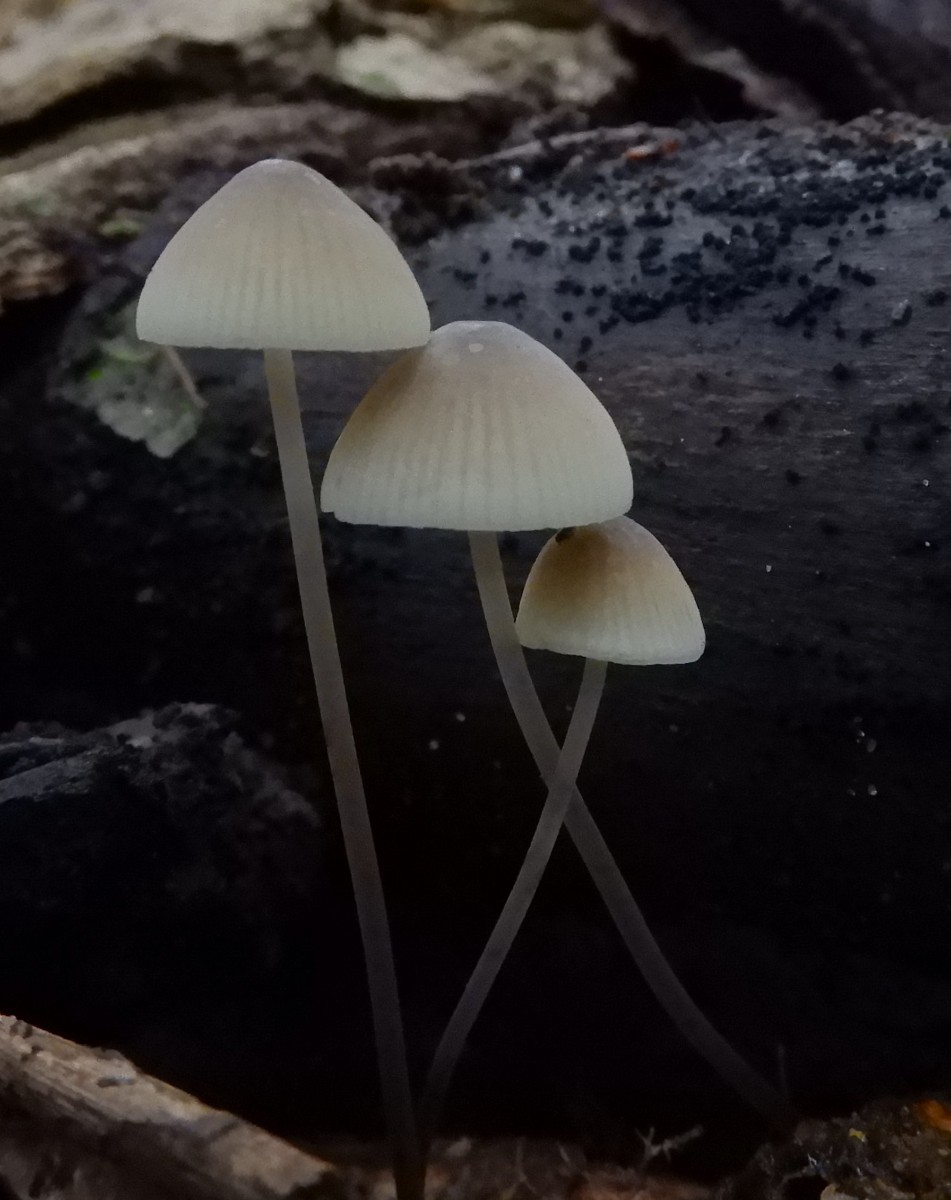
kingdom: Fungi
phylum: Basidiomycota
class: Agaricomycetes
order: Agaricales
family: Mycenaceae
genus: Mycena
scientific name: Mycena arcangeliana
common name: oliven-huesvamp
